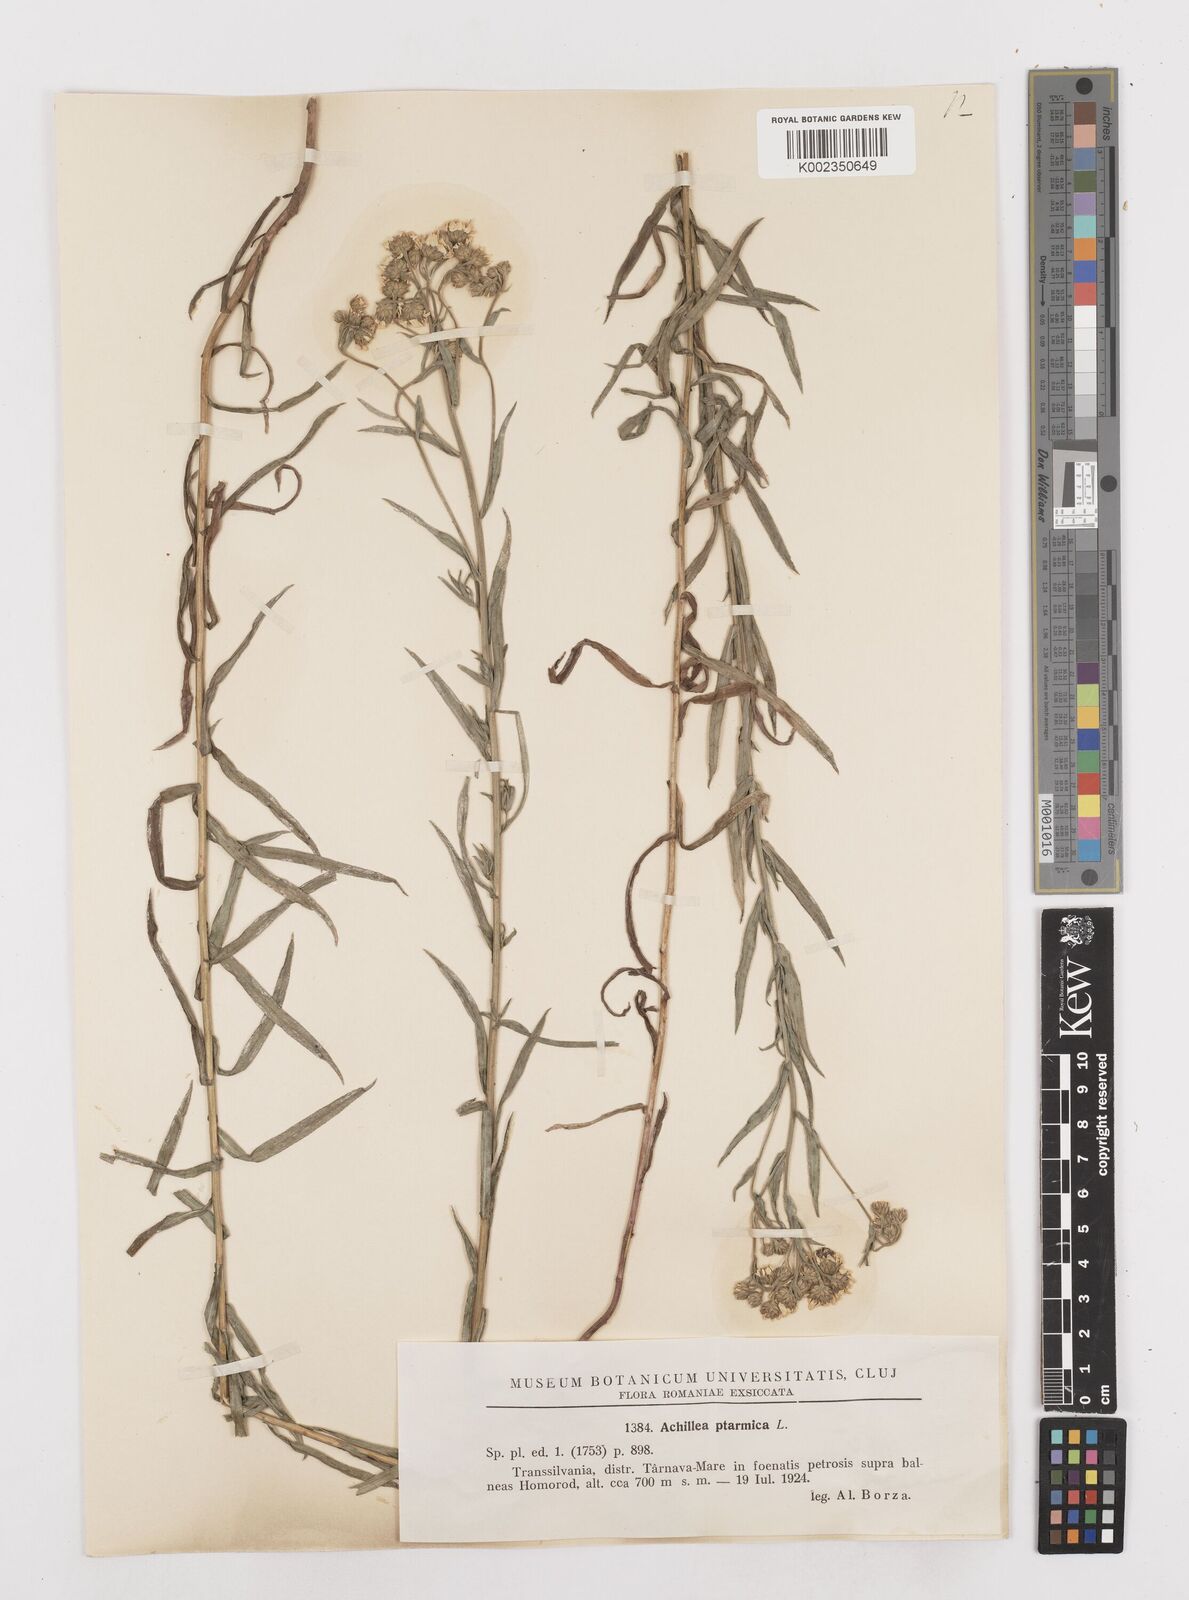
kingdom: Plantae
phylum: Tracheophyta
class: Magnoliopsida
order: Asterales
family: Asteraceae
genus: Achillea
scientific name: Achillea
